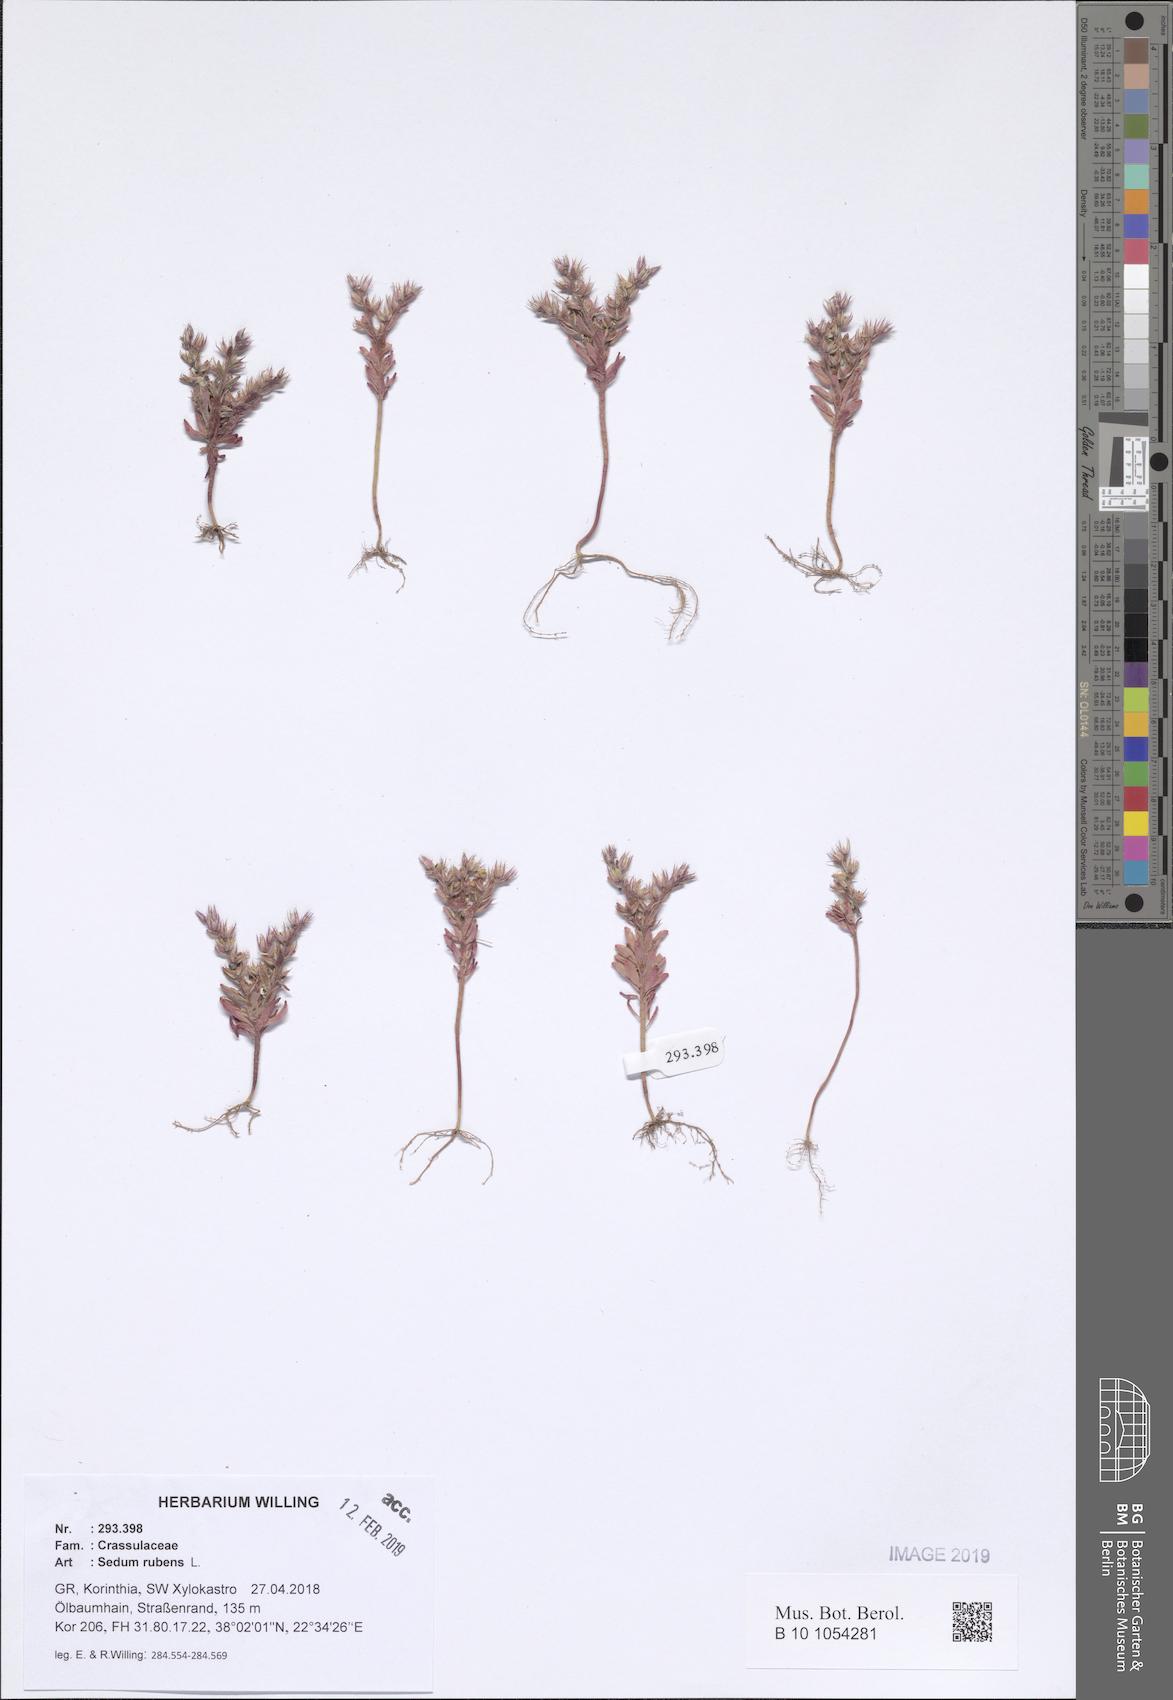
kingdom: Plantae
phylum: Tracheophyta
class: Magnoliopsida
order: Saxifragales
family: Crassulaceae
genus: Sedum
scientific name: Sedum rubens
